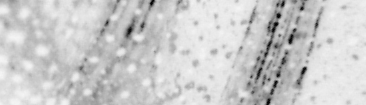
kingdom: Animalia
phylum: Chordata
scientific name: Chordata
